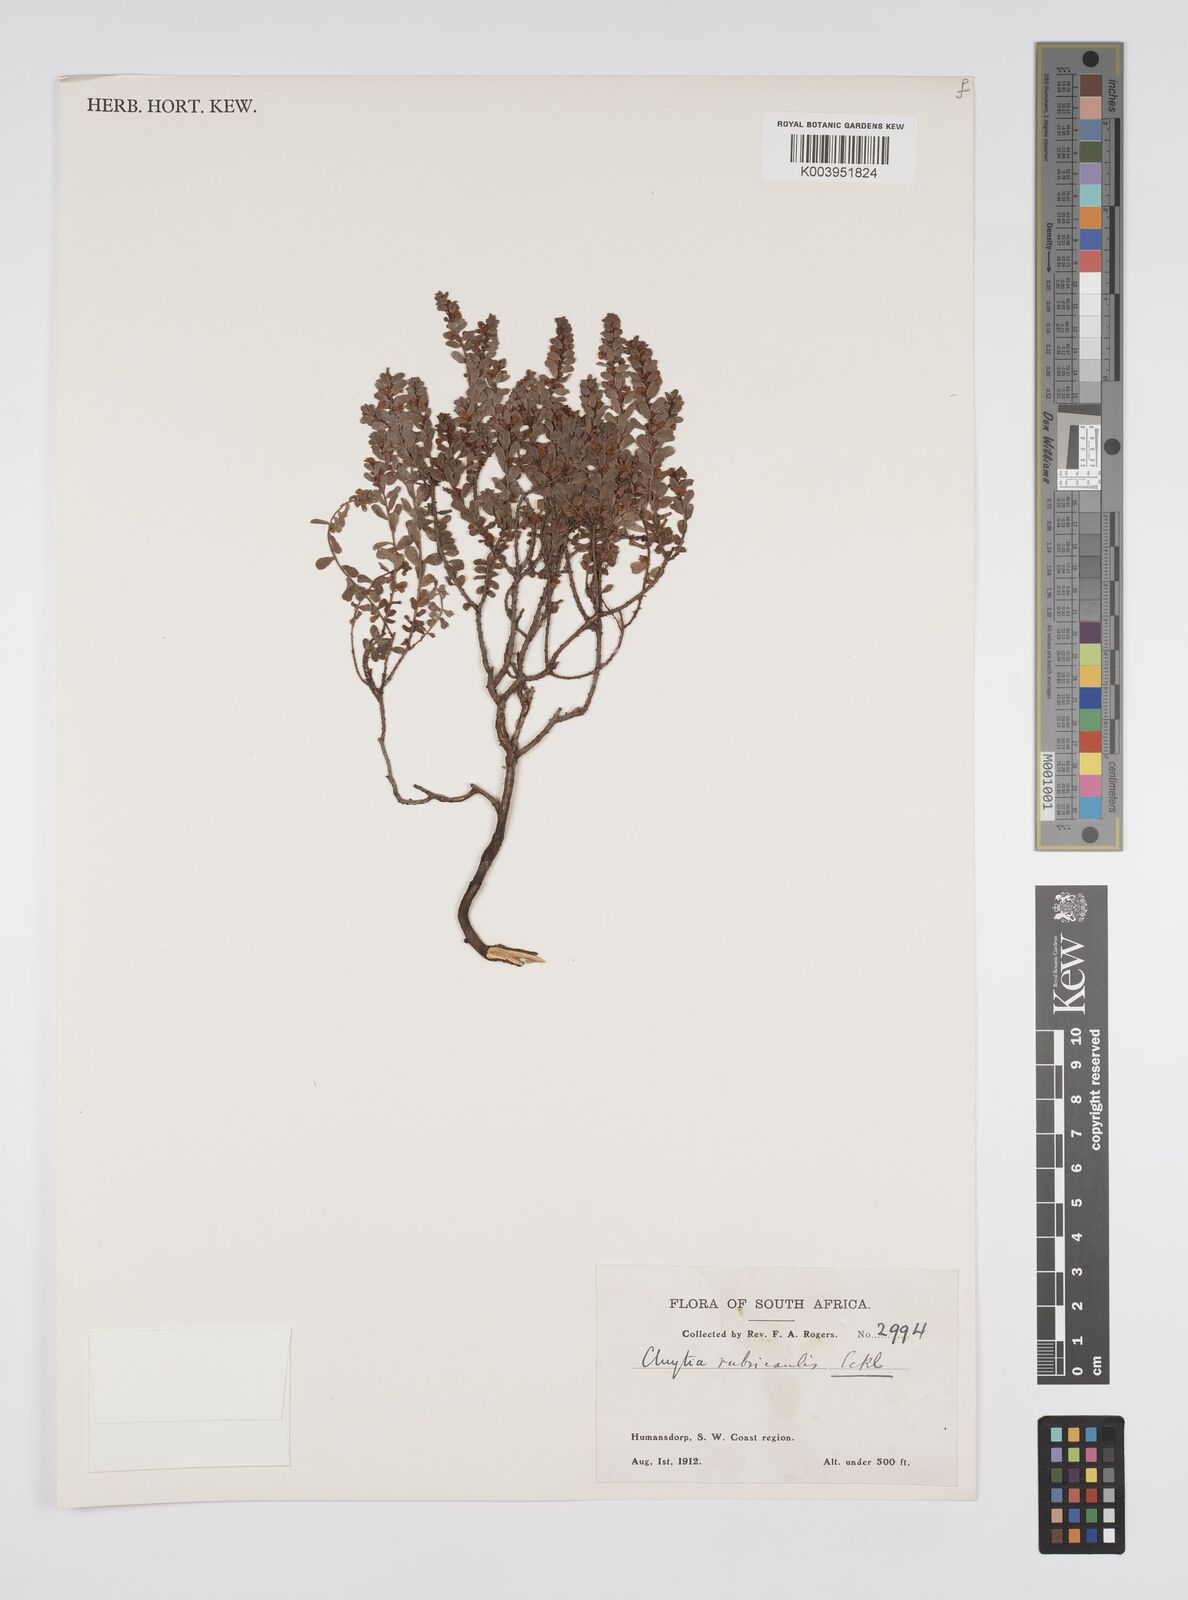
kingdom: Plantae
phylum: Tracheophyta
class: Magnoliopsida
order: Malpighiales
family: Peraceae
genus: Clutia
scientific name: Clutia rubricaulis
